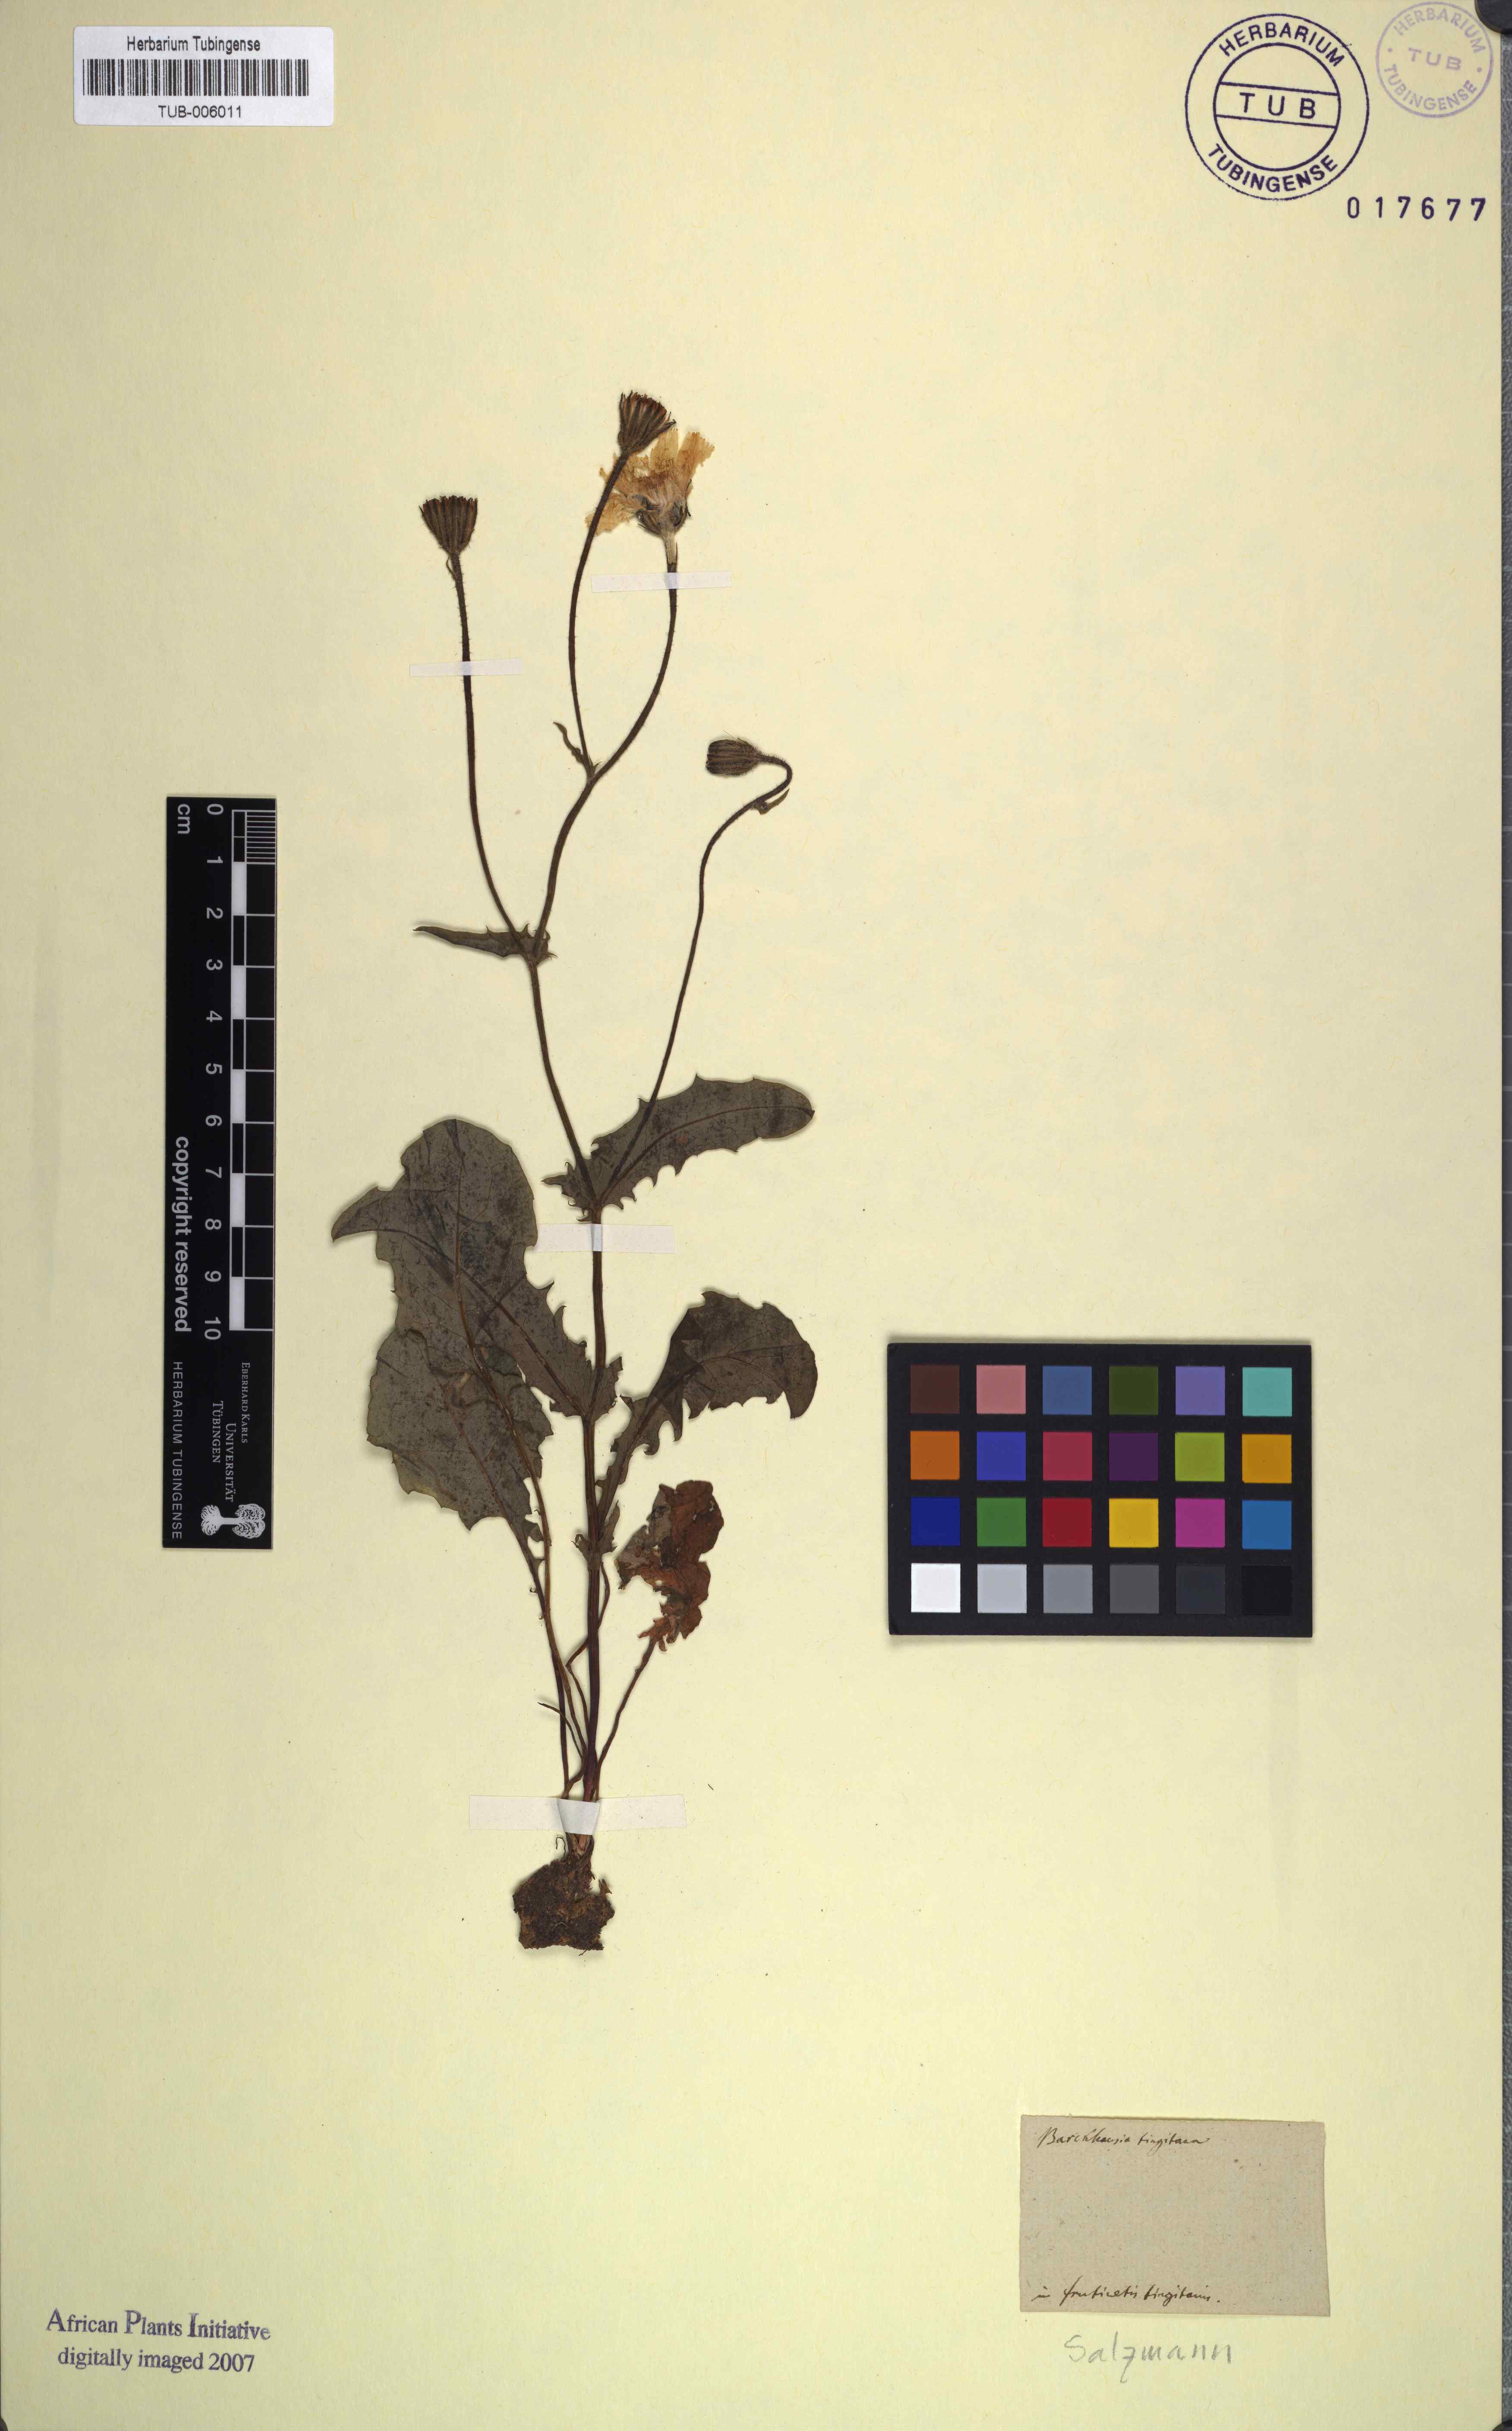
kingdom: Plantae
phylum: Tracheophyta
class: Magnoliopsida
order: Asterales
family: Asteraceae
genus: Crepis
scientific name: Crepis tingitana
